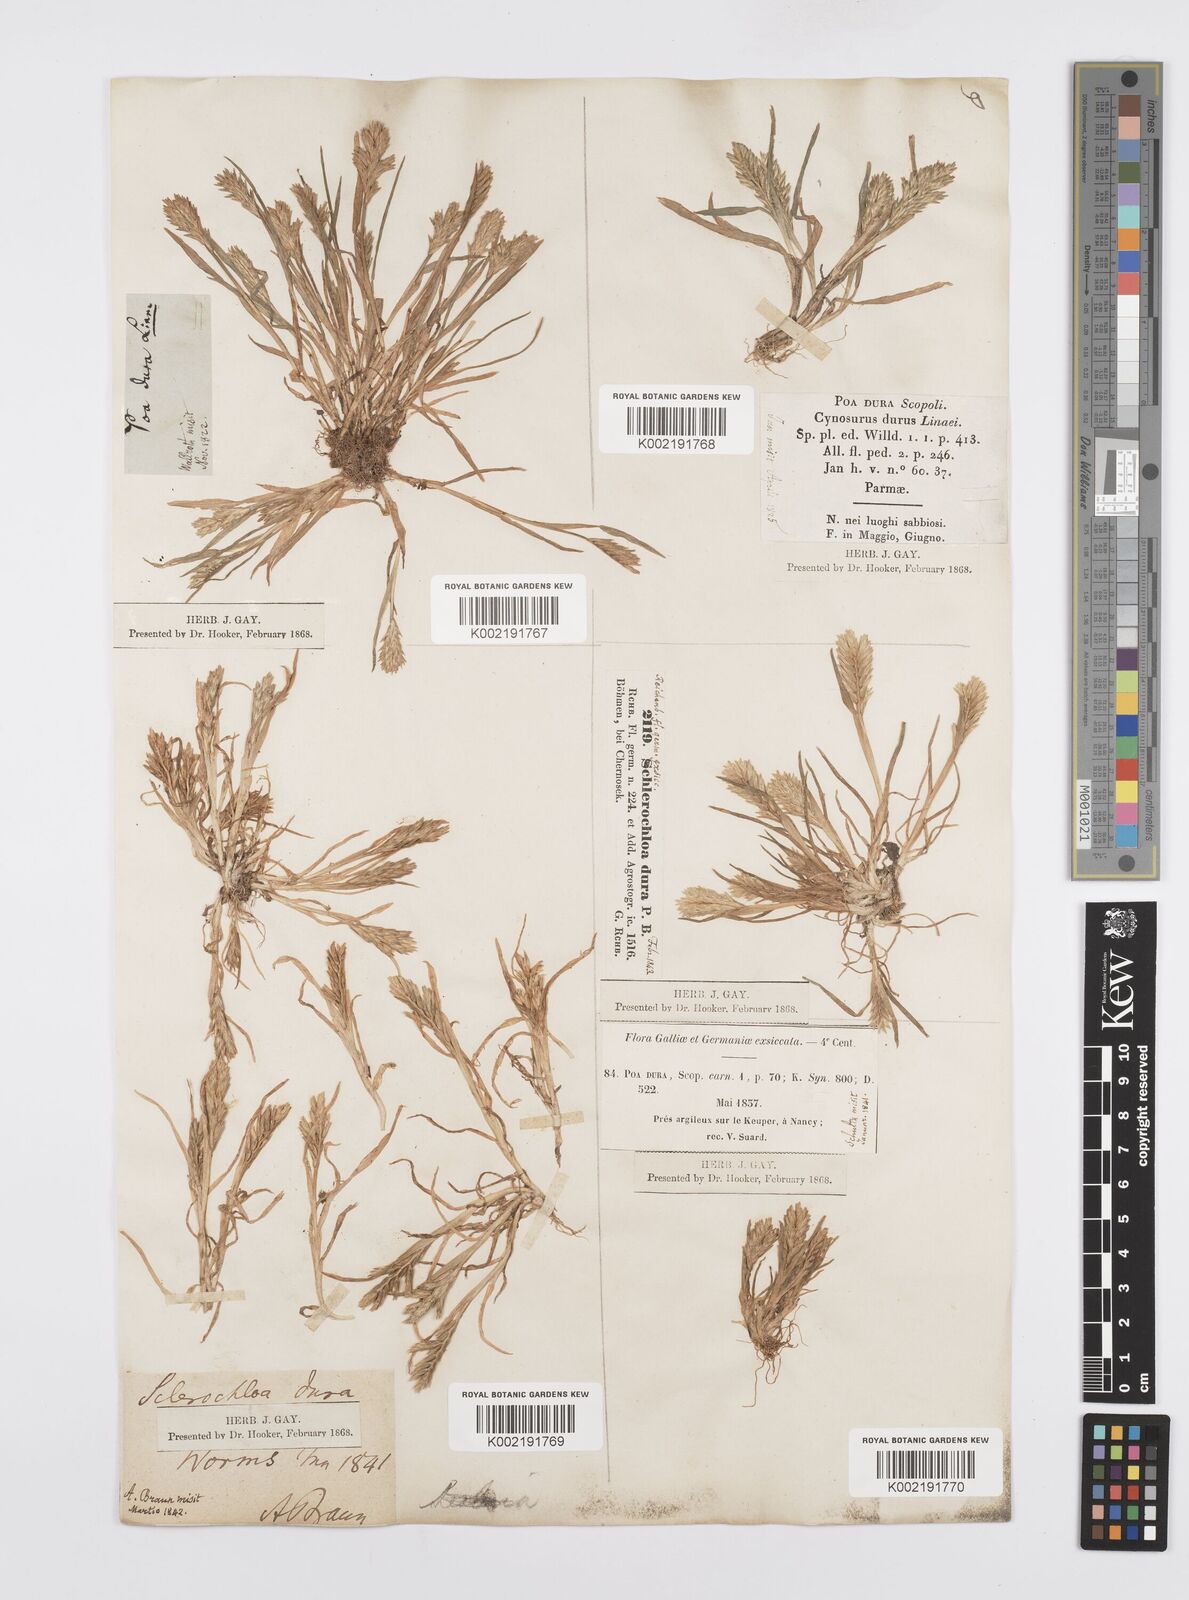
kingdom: Plantae
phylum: Tracheophyta
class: Liliopsida
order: Poales
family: Poaceae
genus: Sclerochloa
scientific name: Sclerochloa dura
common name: Common hardgrass
